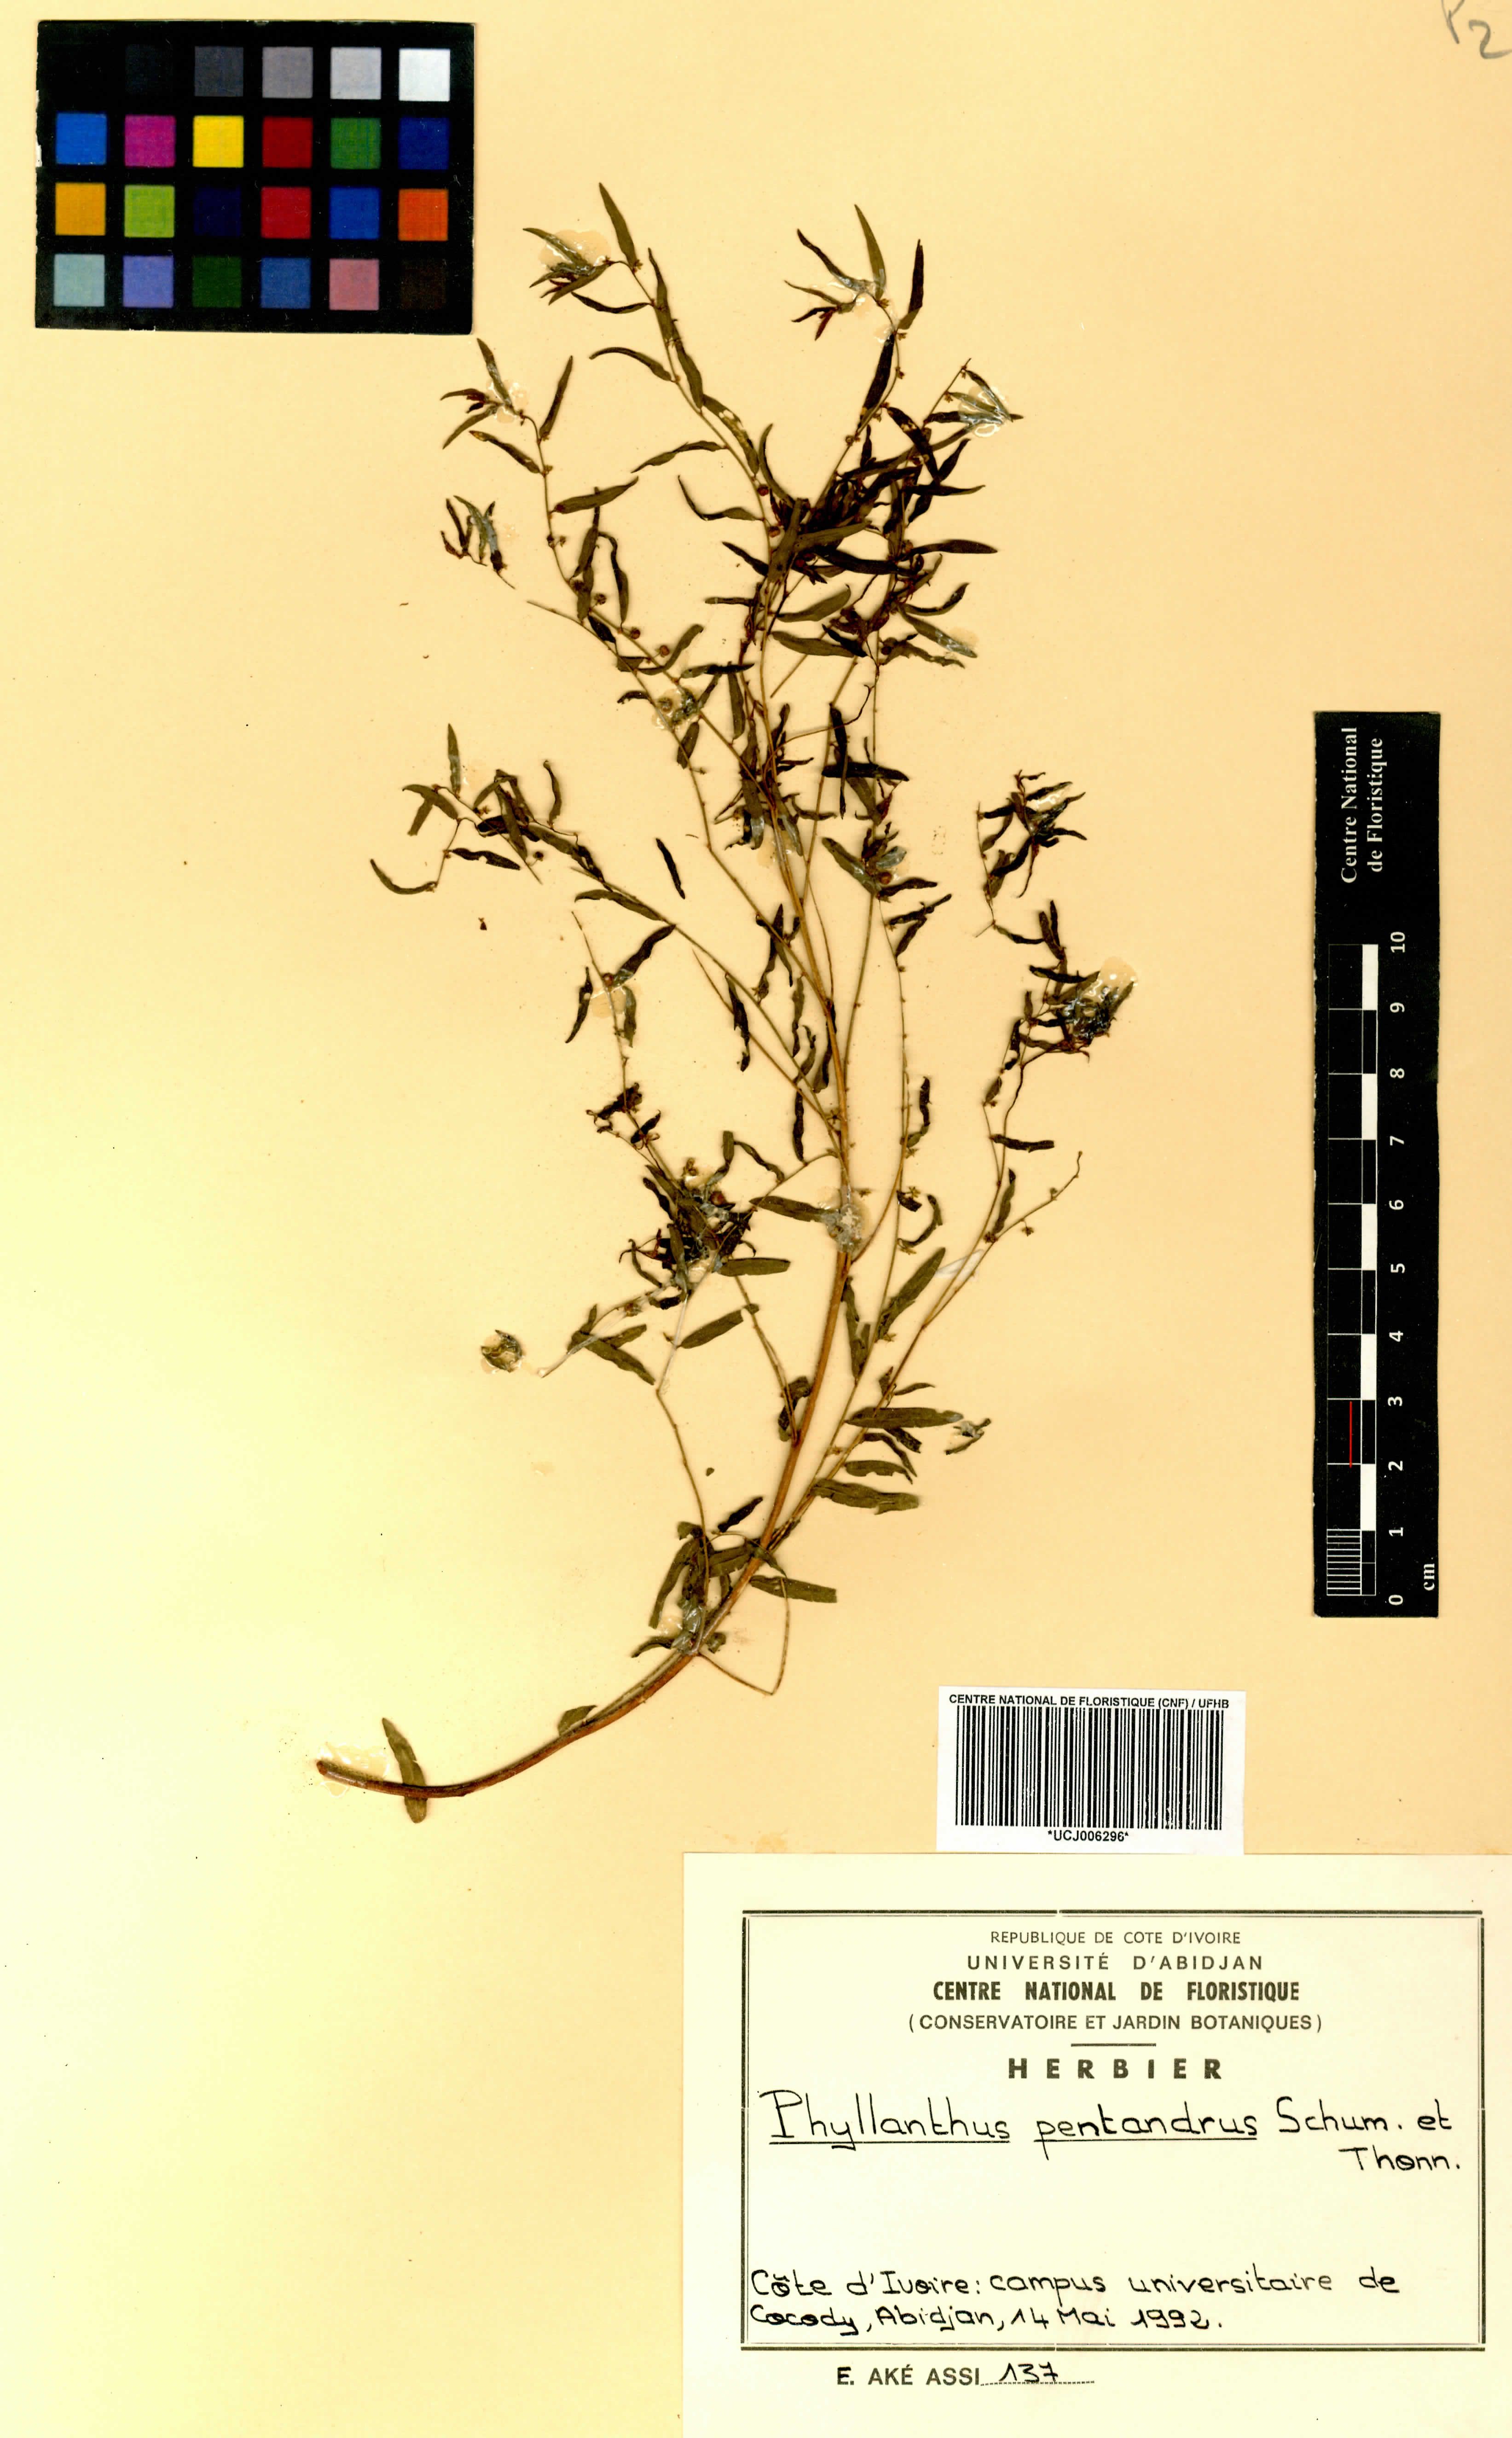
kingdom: Plantae
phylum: Tracheophyta
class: Magnoliopsida
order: Malpighiales
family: Phyllanthaceae
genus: Phyllanthus
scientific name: Phyllanthus pentandrus
